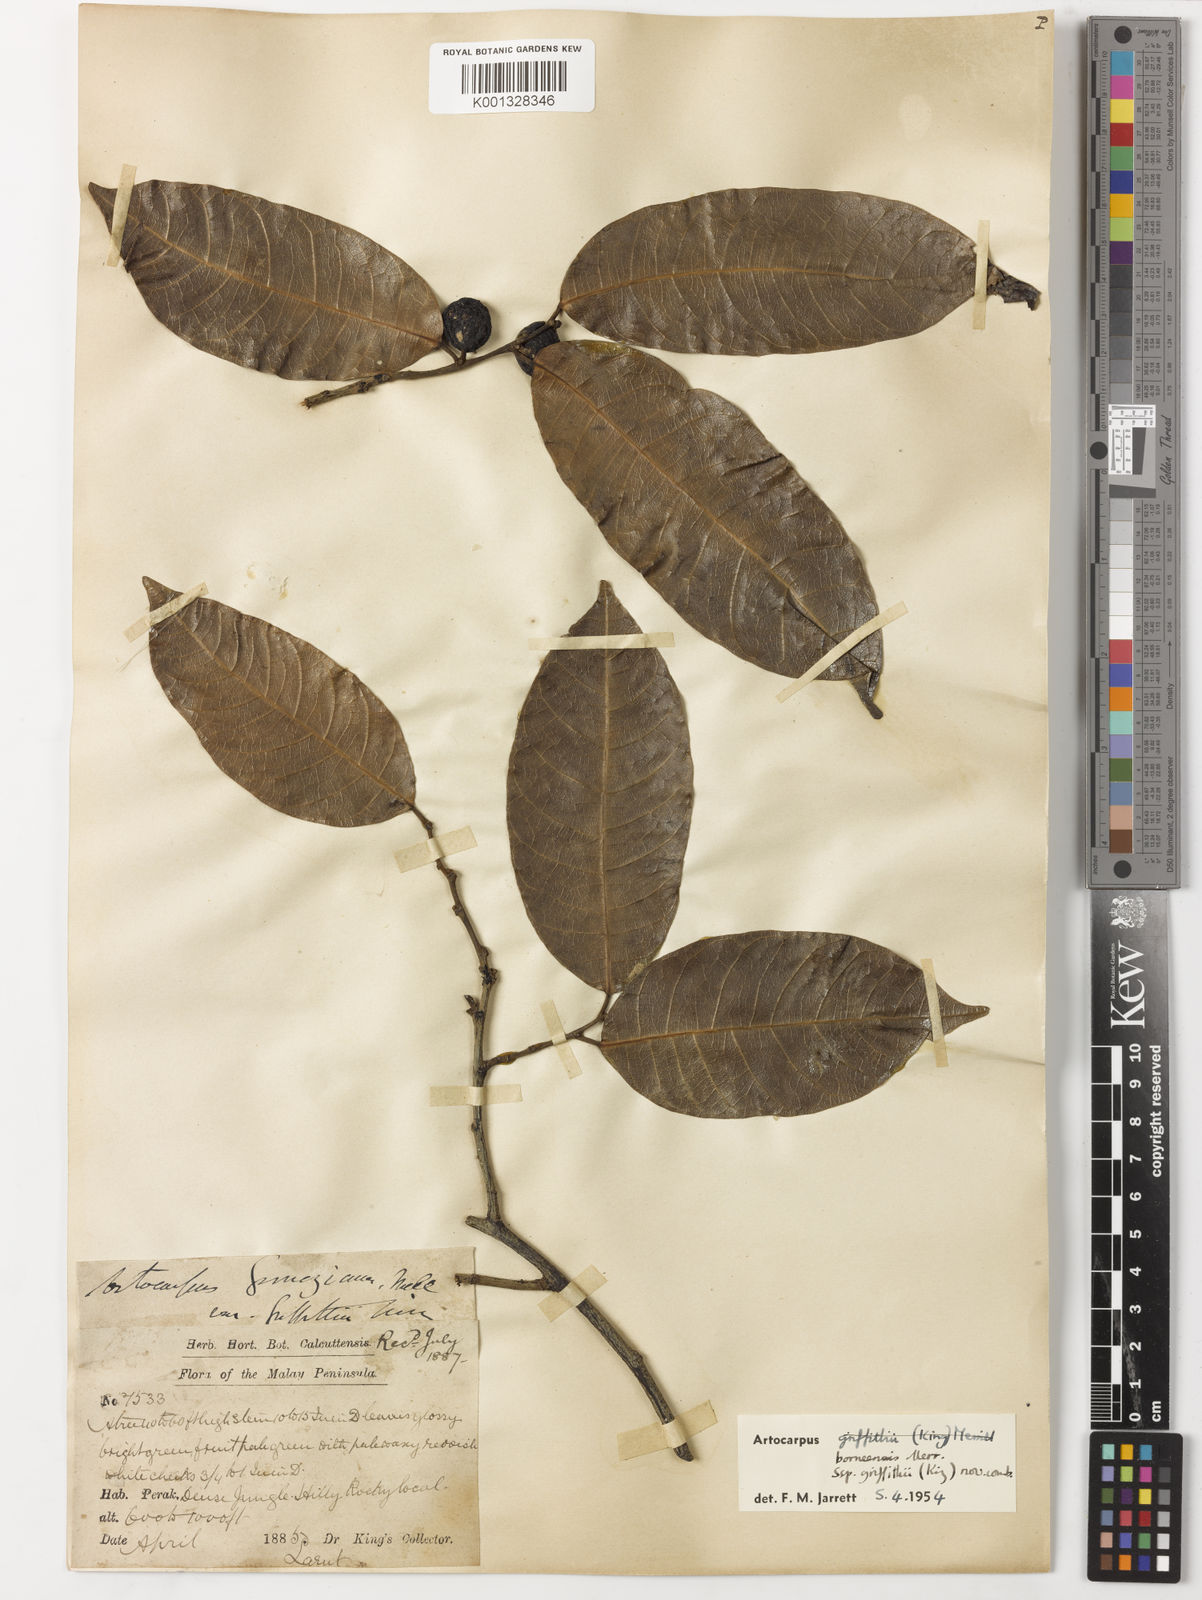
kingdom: Plantae
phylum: Tracheophyta
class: Magnoliopsida
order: Rosales
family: Moraceae
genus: Artocarpus
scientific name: Artocarpus lamellosus
